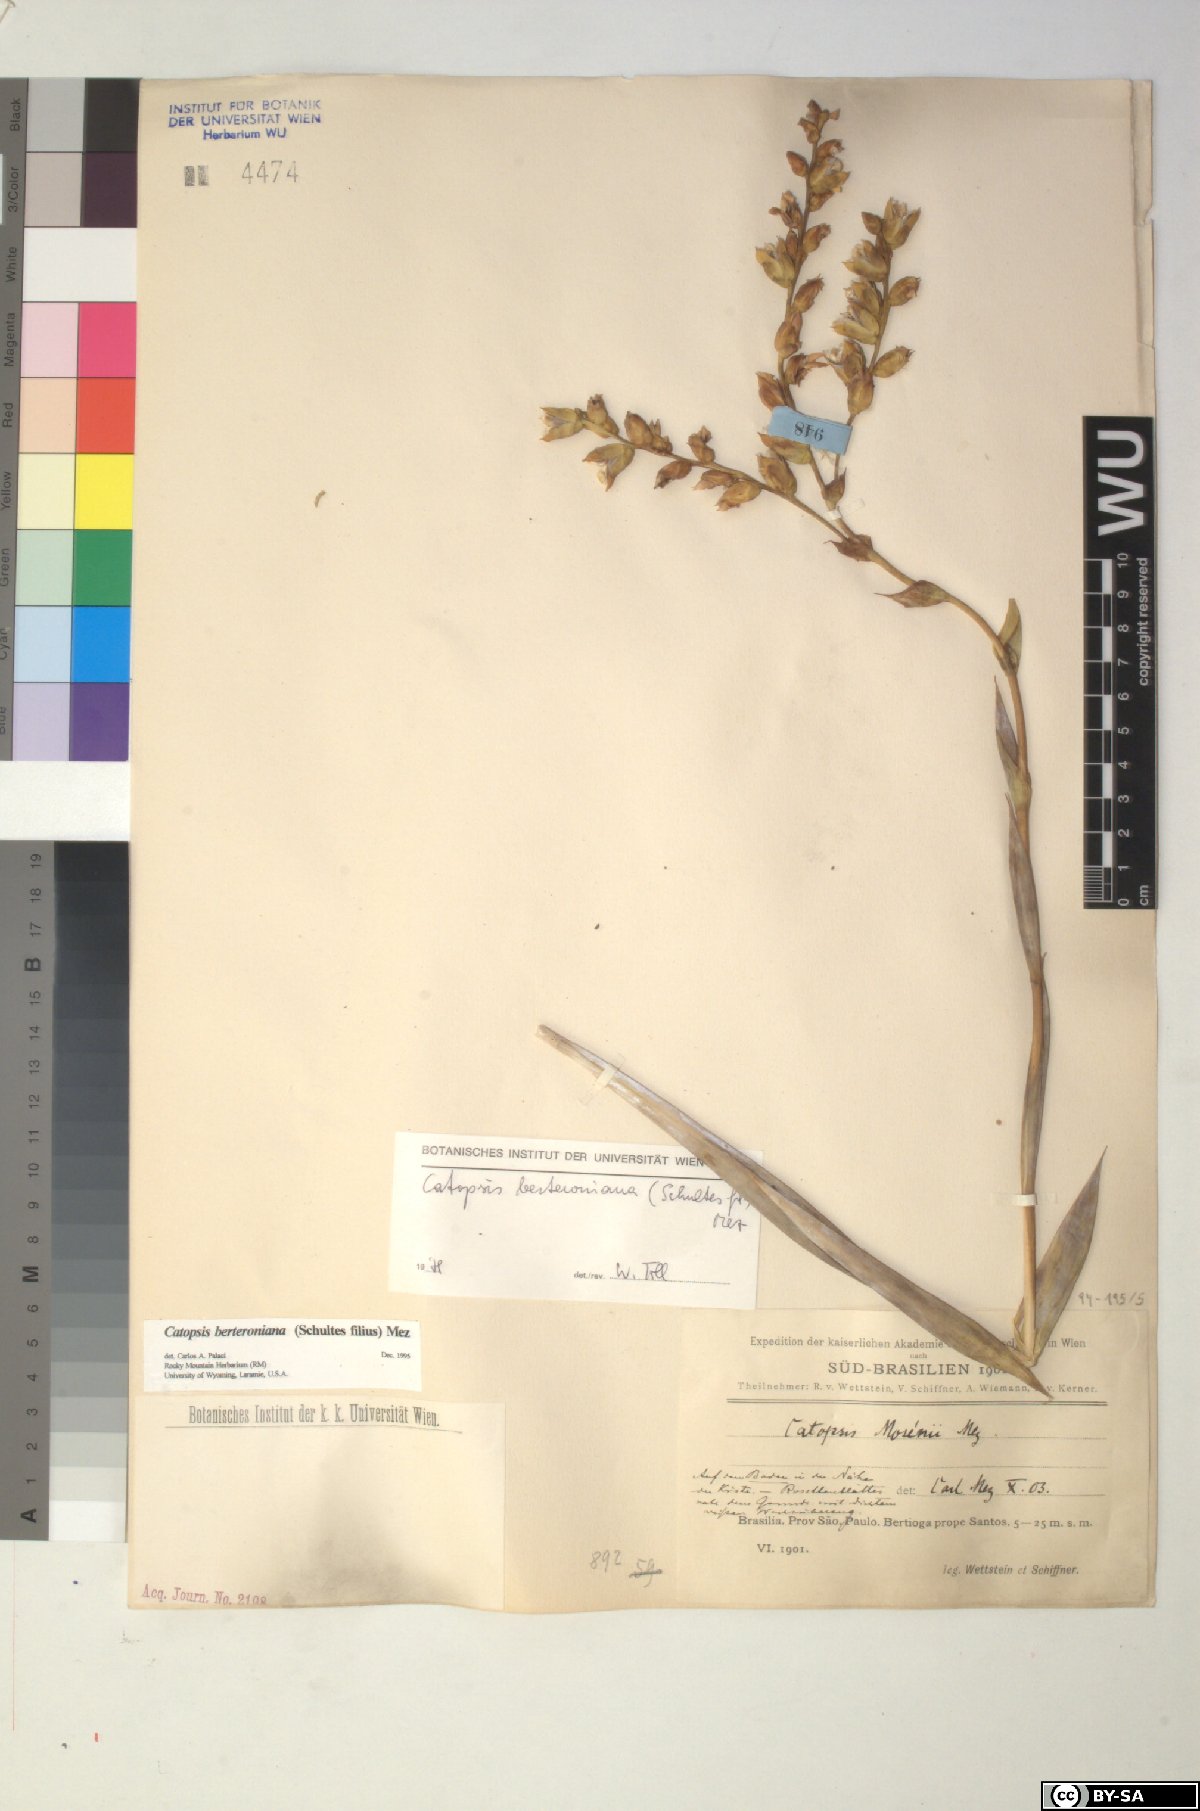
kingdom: Plantae
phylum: Tracheophyta
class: Liliopsida
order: Poales
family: Bromeliaceae
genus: Catopsis
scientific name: Catopsis berteroniana
